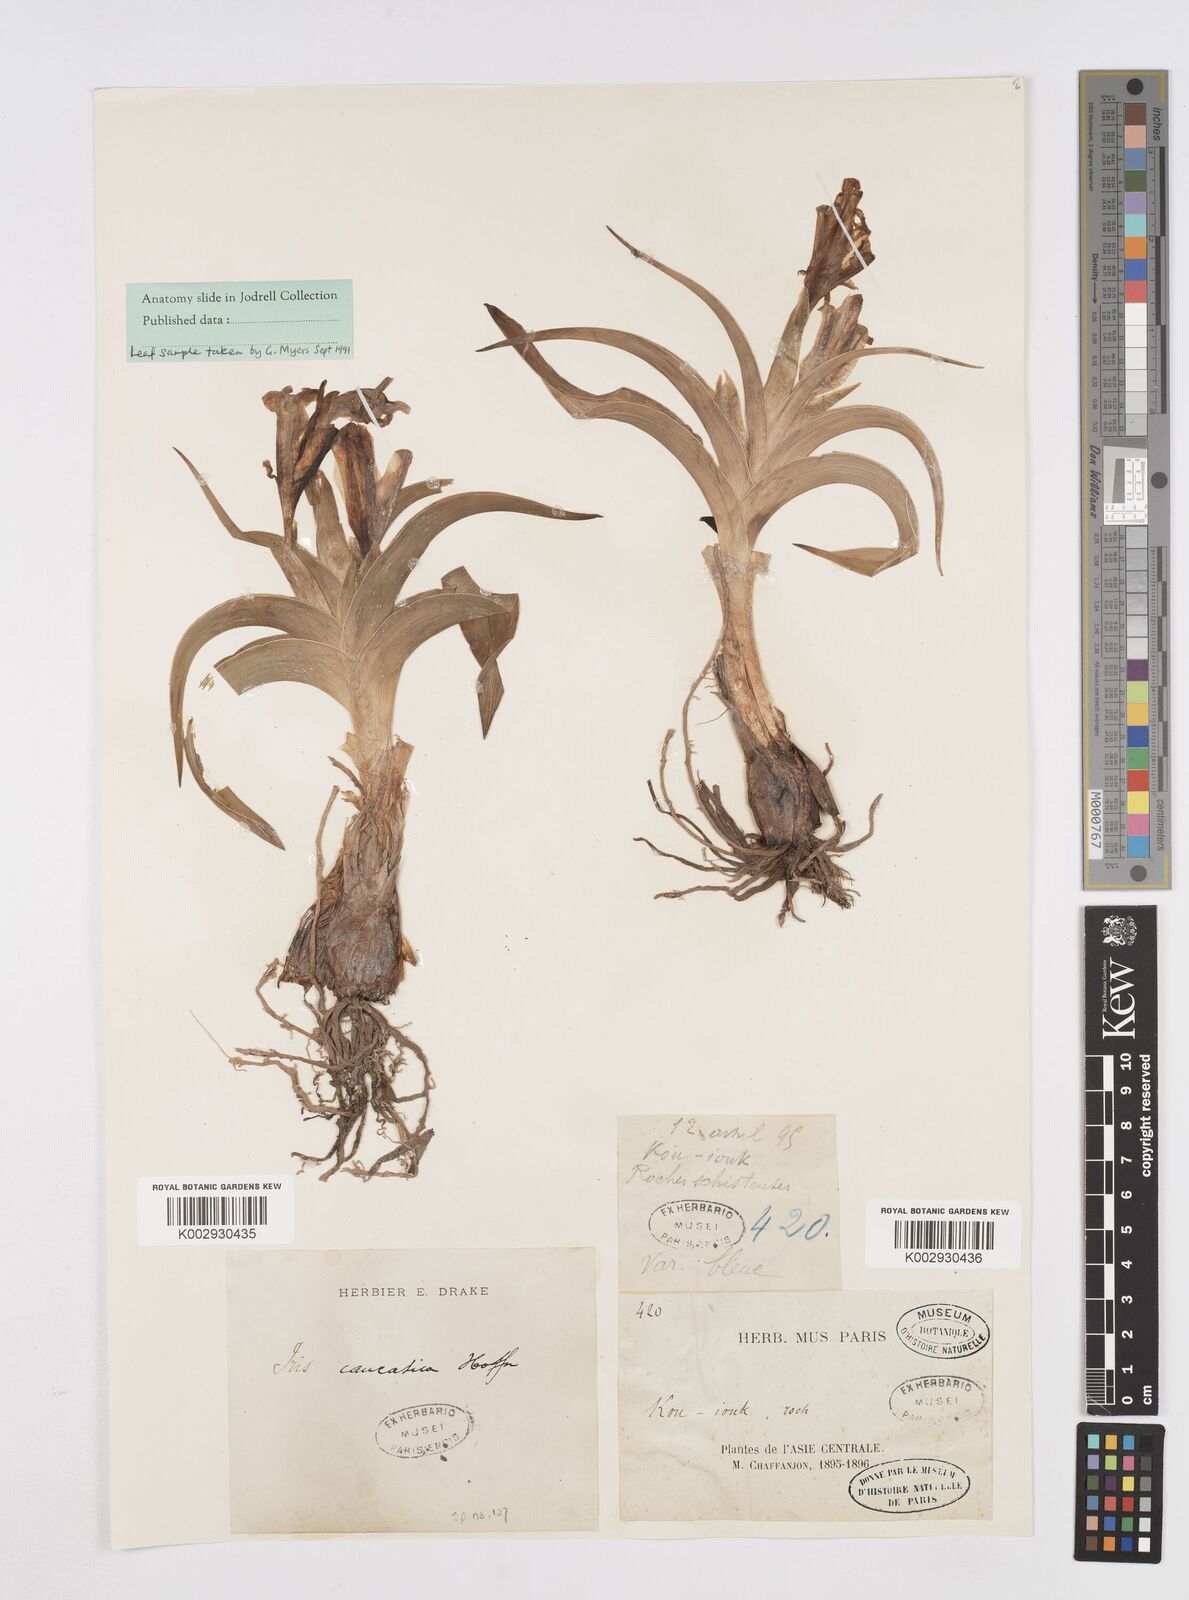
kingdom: Plantae
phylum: Tracheophyta
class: Liliopsida
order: Asparagales
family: Iridaceae
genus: Iris
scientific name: Iris
